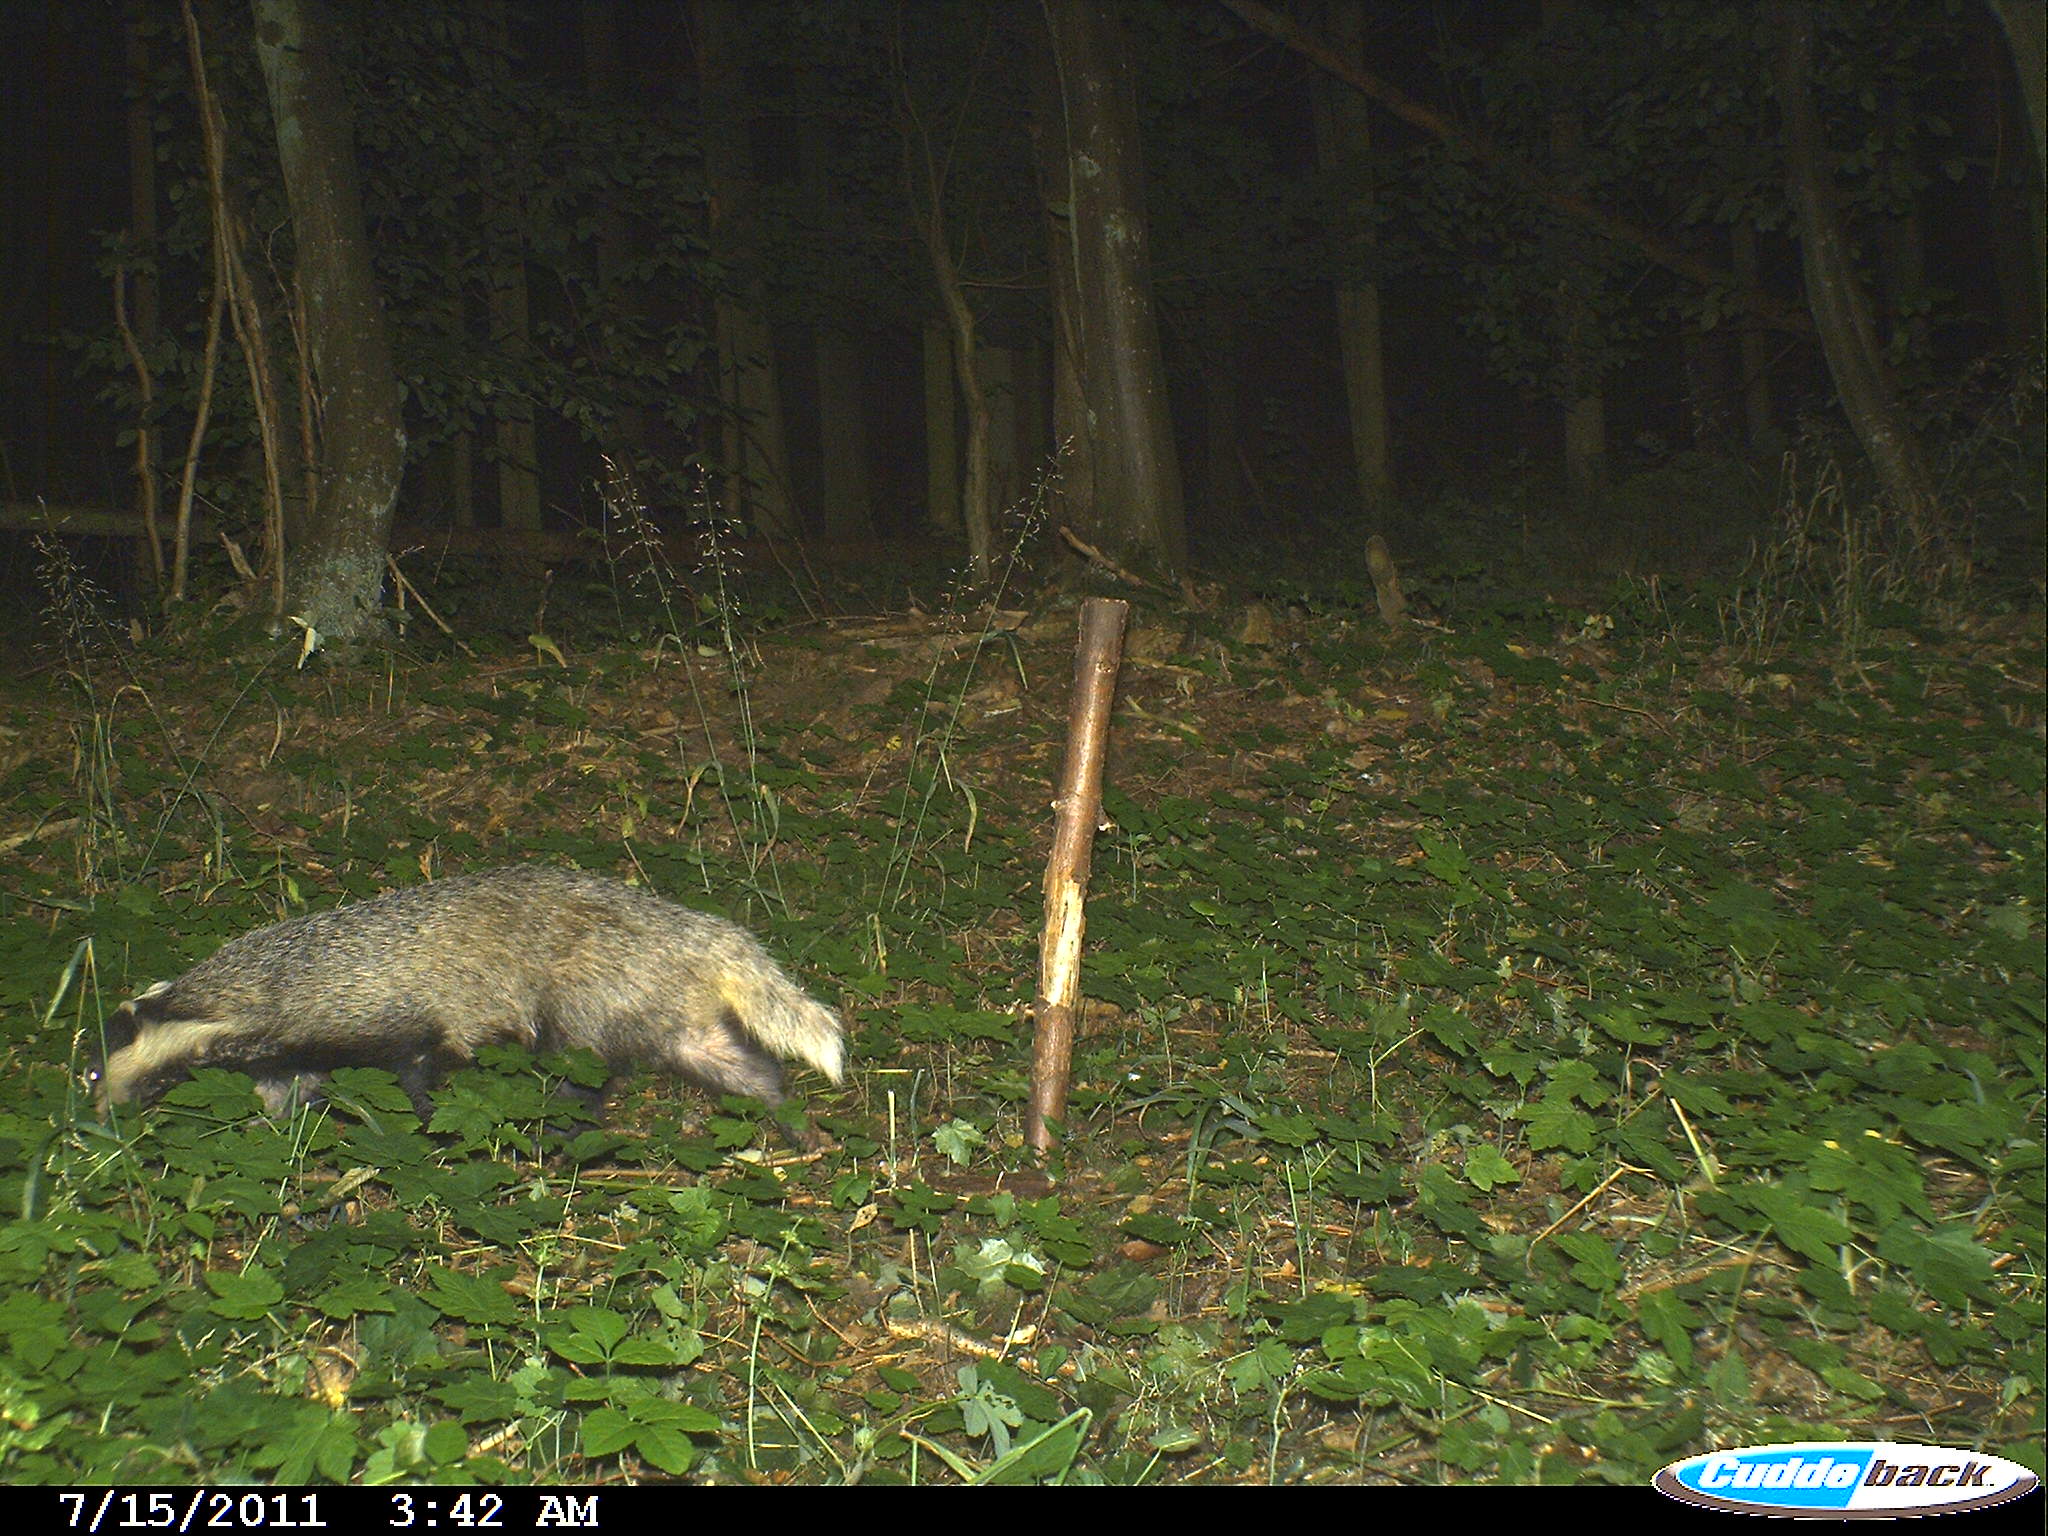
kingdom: Animalia
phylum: Chordata
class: Mammalia
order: Carnivora
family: Mustelidae
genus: Meles
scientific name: Meles meles
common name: Eurasian badger
